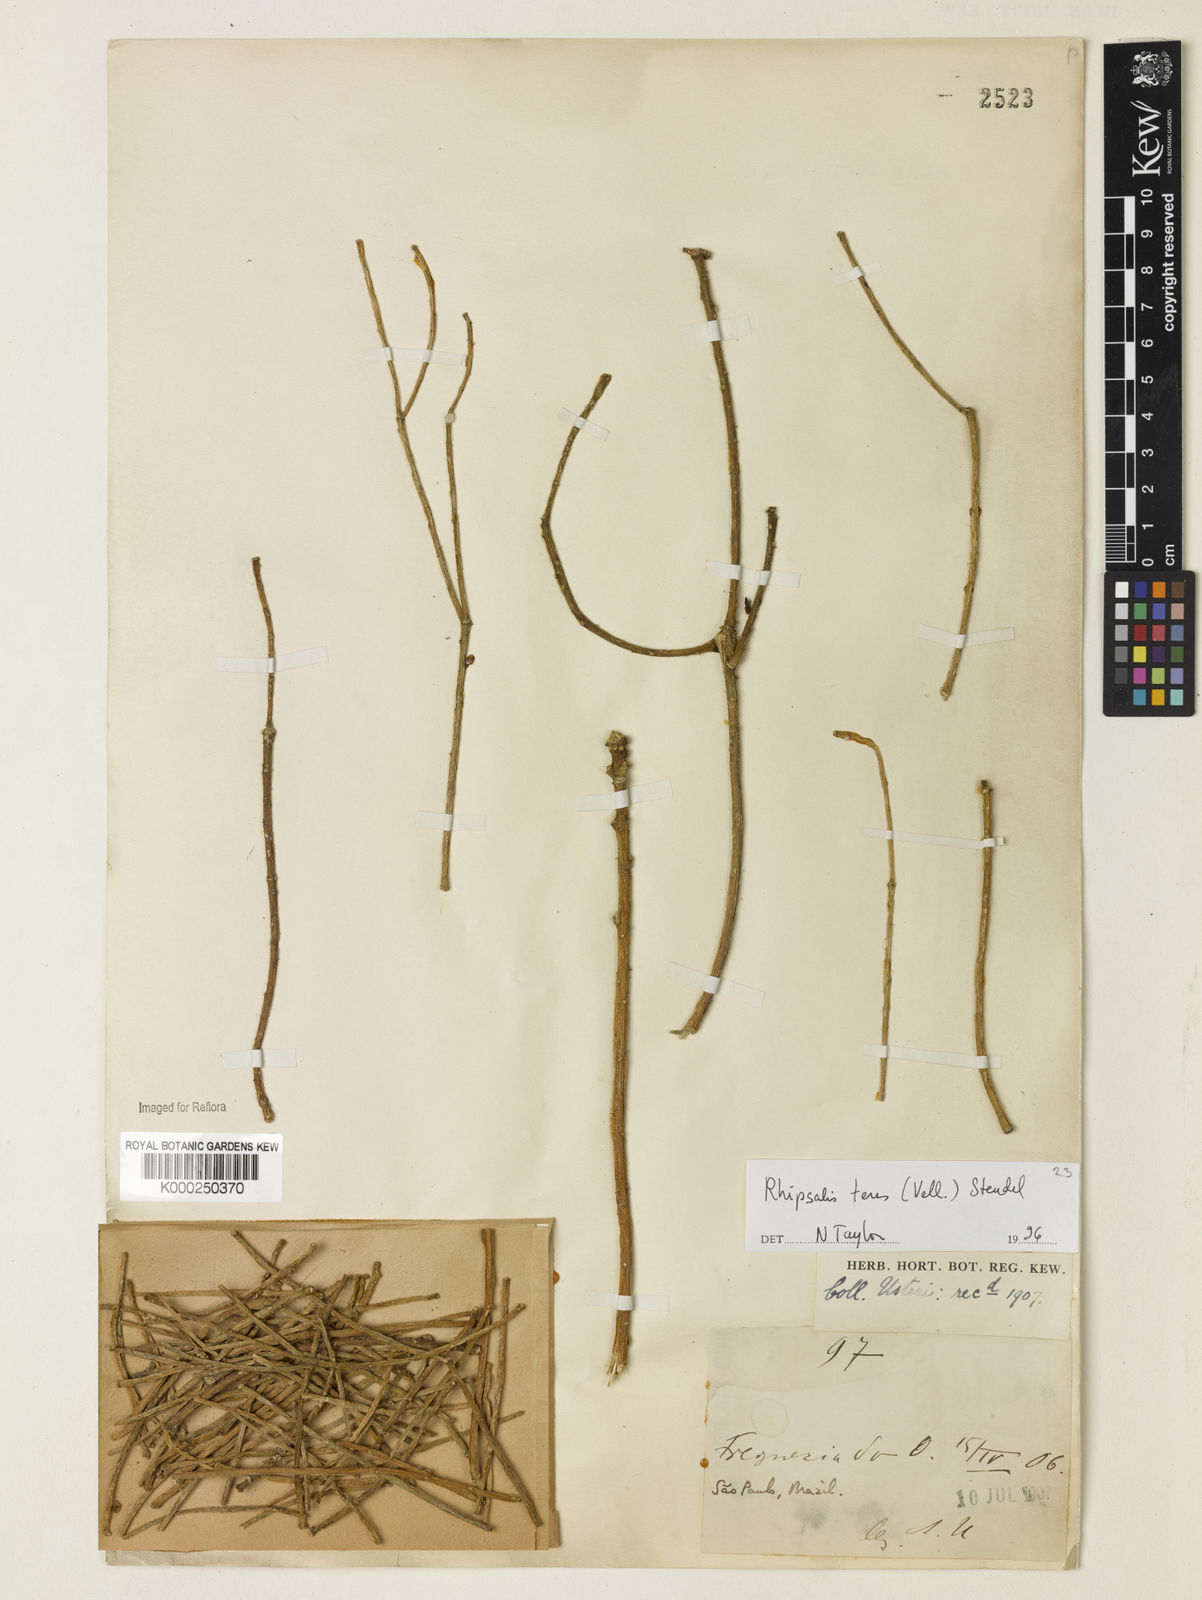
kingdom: Plantae
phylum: Tracheophyta
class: Magnoliopsida
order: Caryophyllales
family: Cactaceae
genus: Rhipsalis
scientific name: Rhipsalis teres
